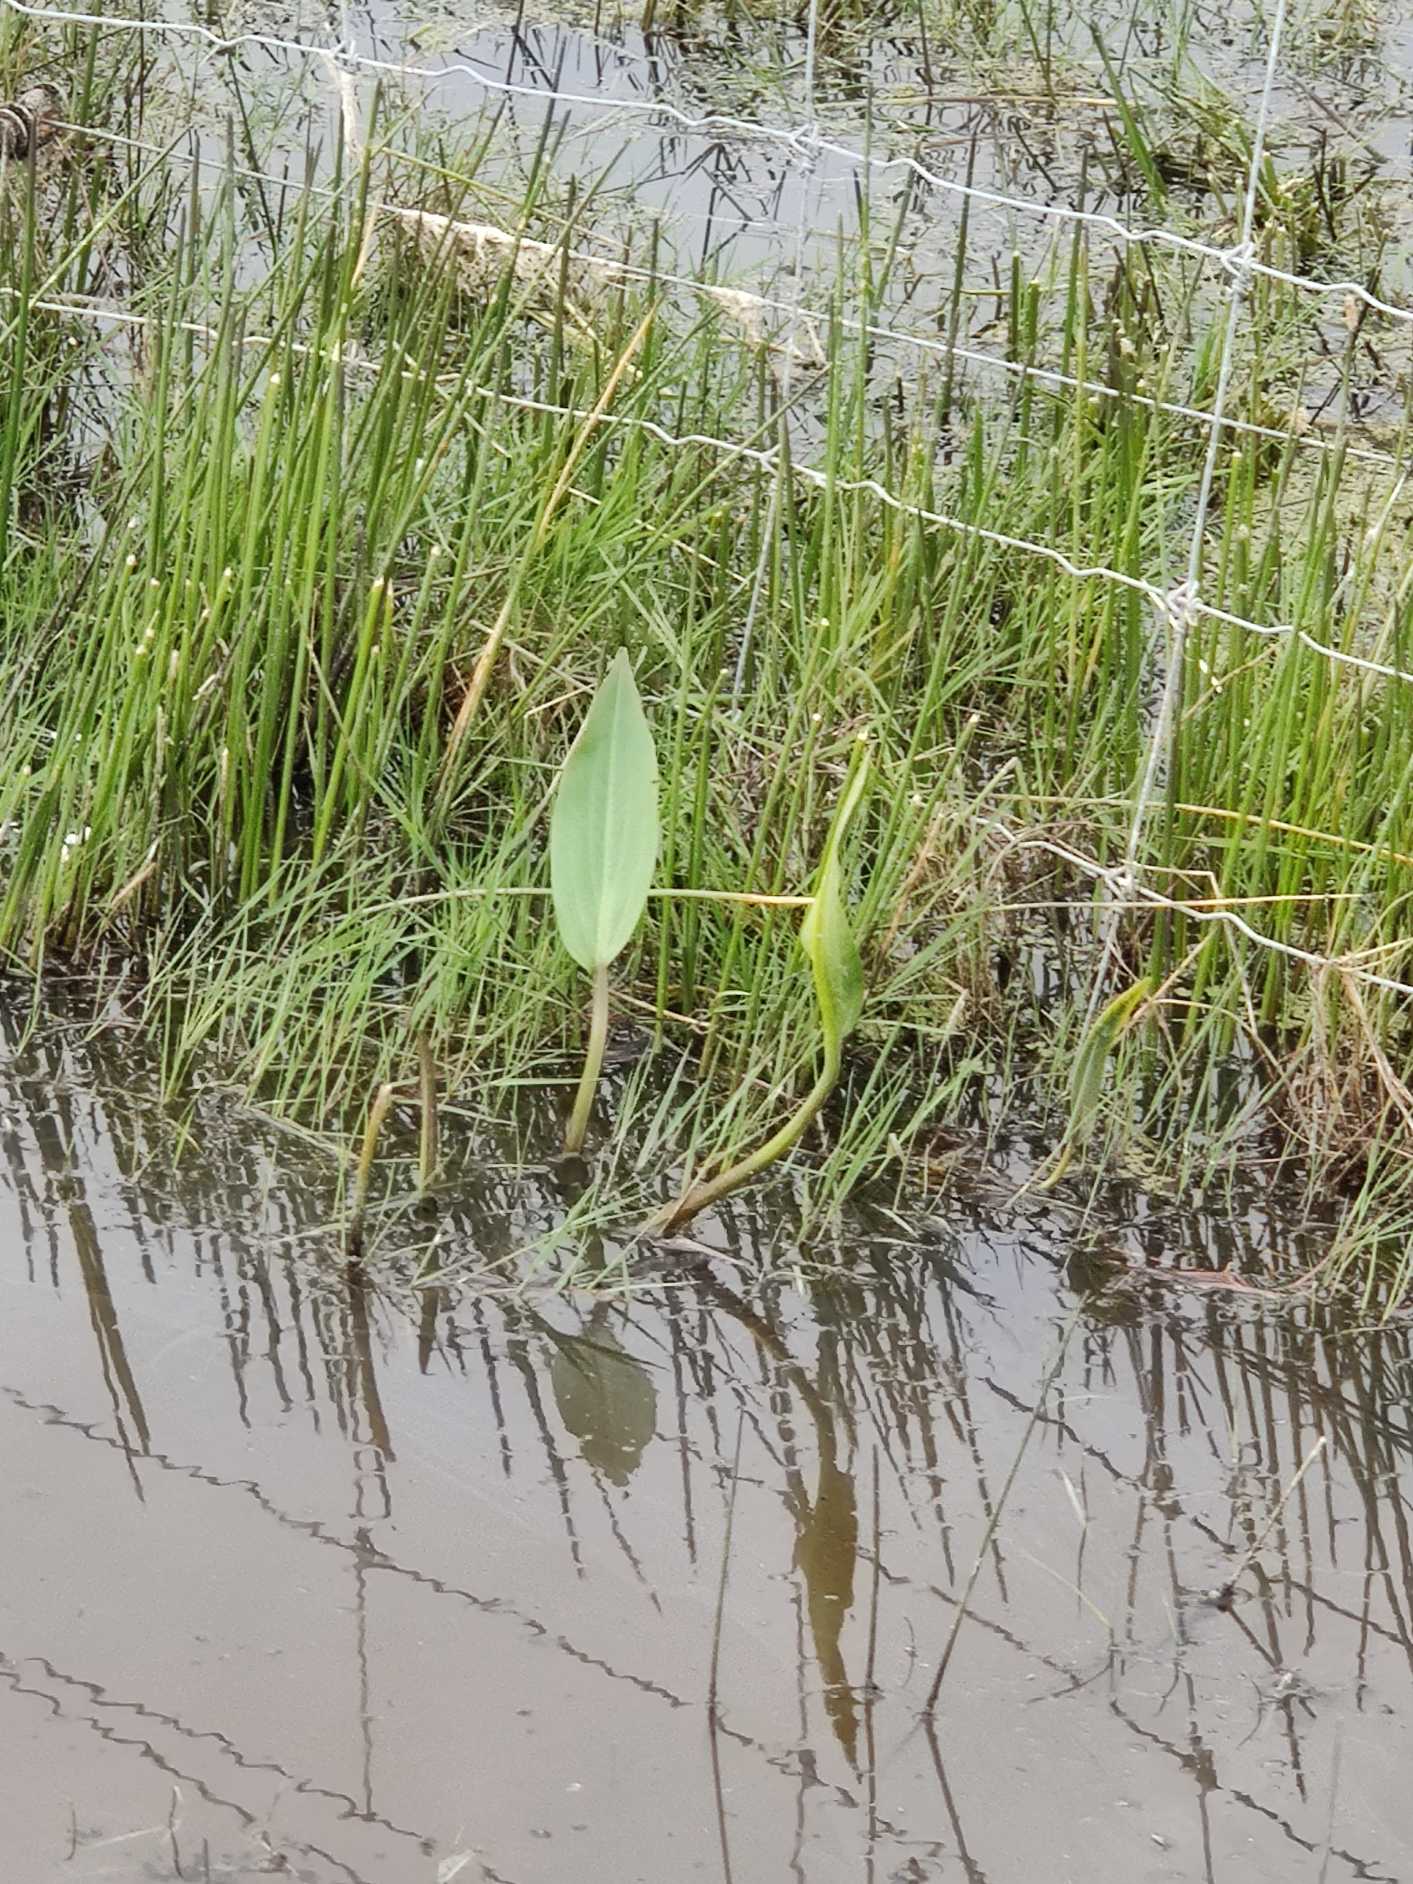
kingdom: Plantae
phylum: Tracheophyta
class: Liliopsida
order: Alismatales
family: Alismataceae
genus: Alisma
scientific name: Alisma plantago-aquatica
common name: Vejbred-skeblad
